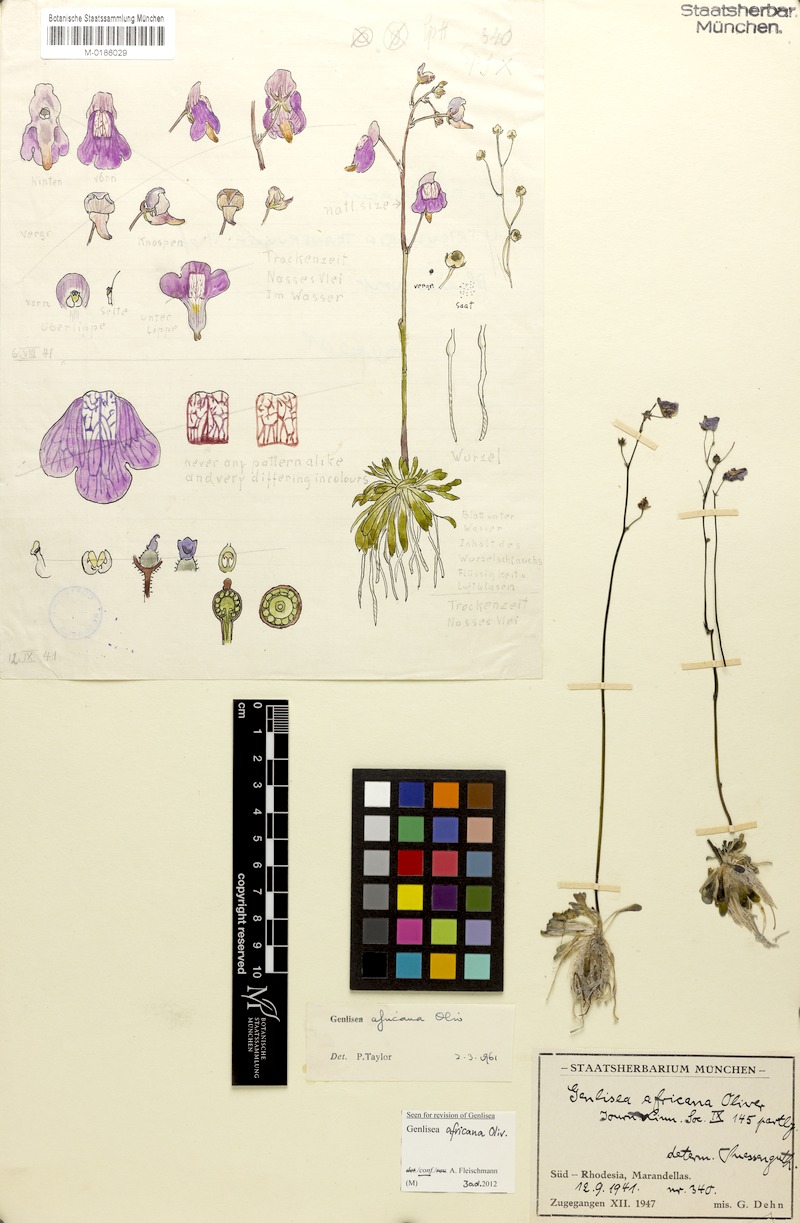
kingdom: Plantae
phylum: Tracheophyta
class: Magnoliopsida
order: Lamiales
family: Lentibulariaceae
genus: Genlisea
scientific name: Genlisea africana
